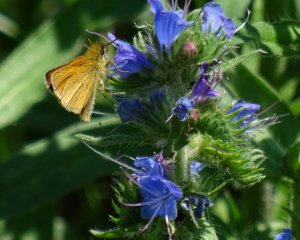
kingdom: Animalia
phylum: Arthropoda
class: Insecta
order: Lepidoptera
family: Hesperiidae
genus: Thymelicus
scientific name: Thymelicus lineola
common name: European Skipper
